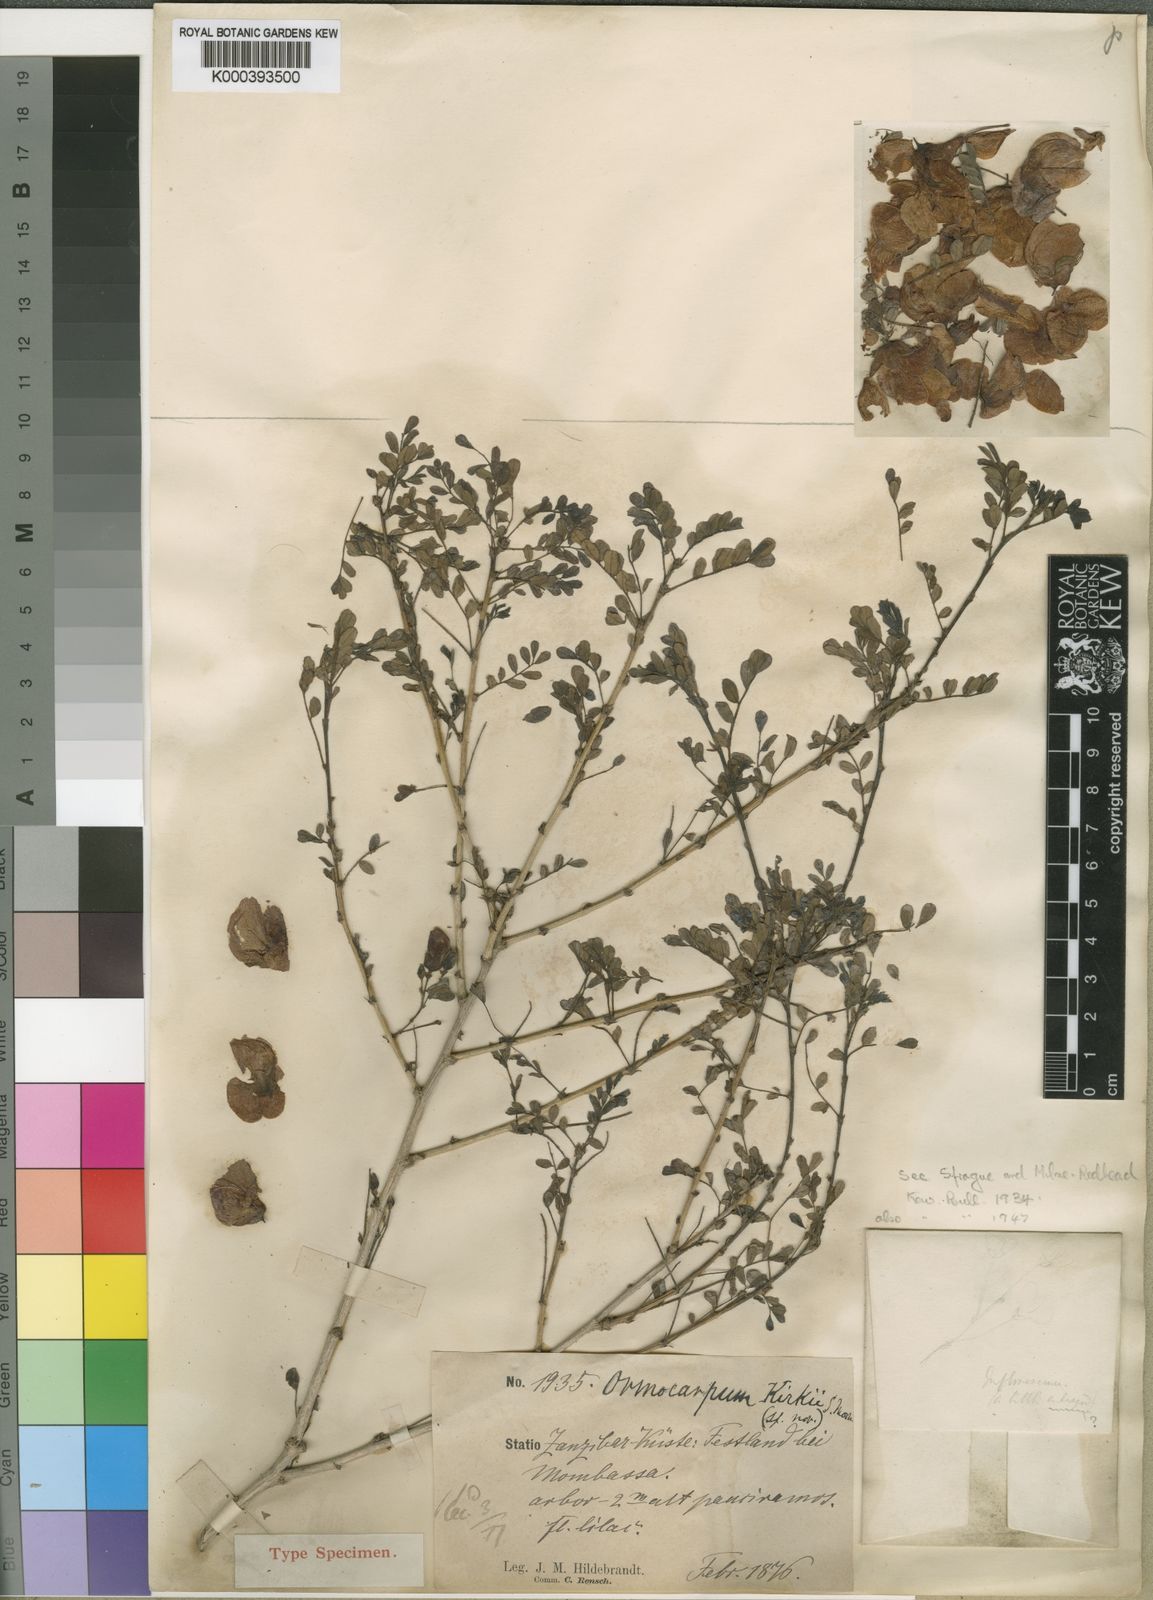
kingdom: Plantae
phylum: Tracheophyta
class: Magnoliopsida
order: Fabales
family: Fabaceae
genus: Ormocarpum
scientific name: Ormocarpum kirkii
